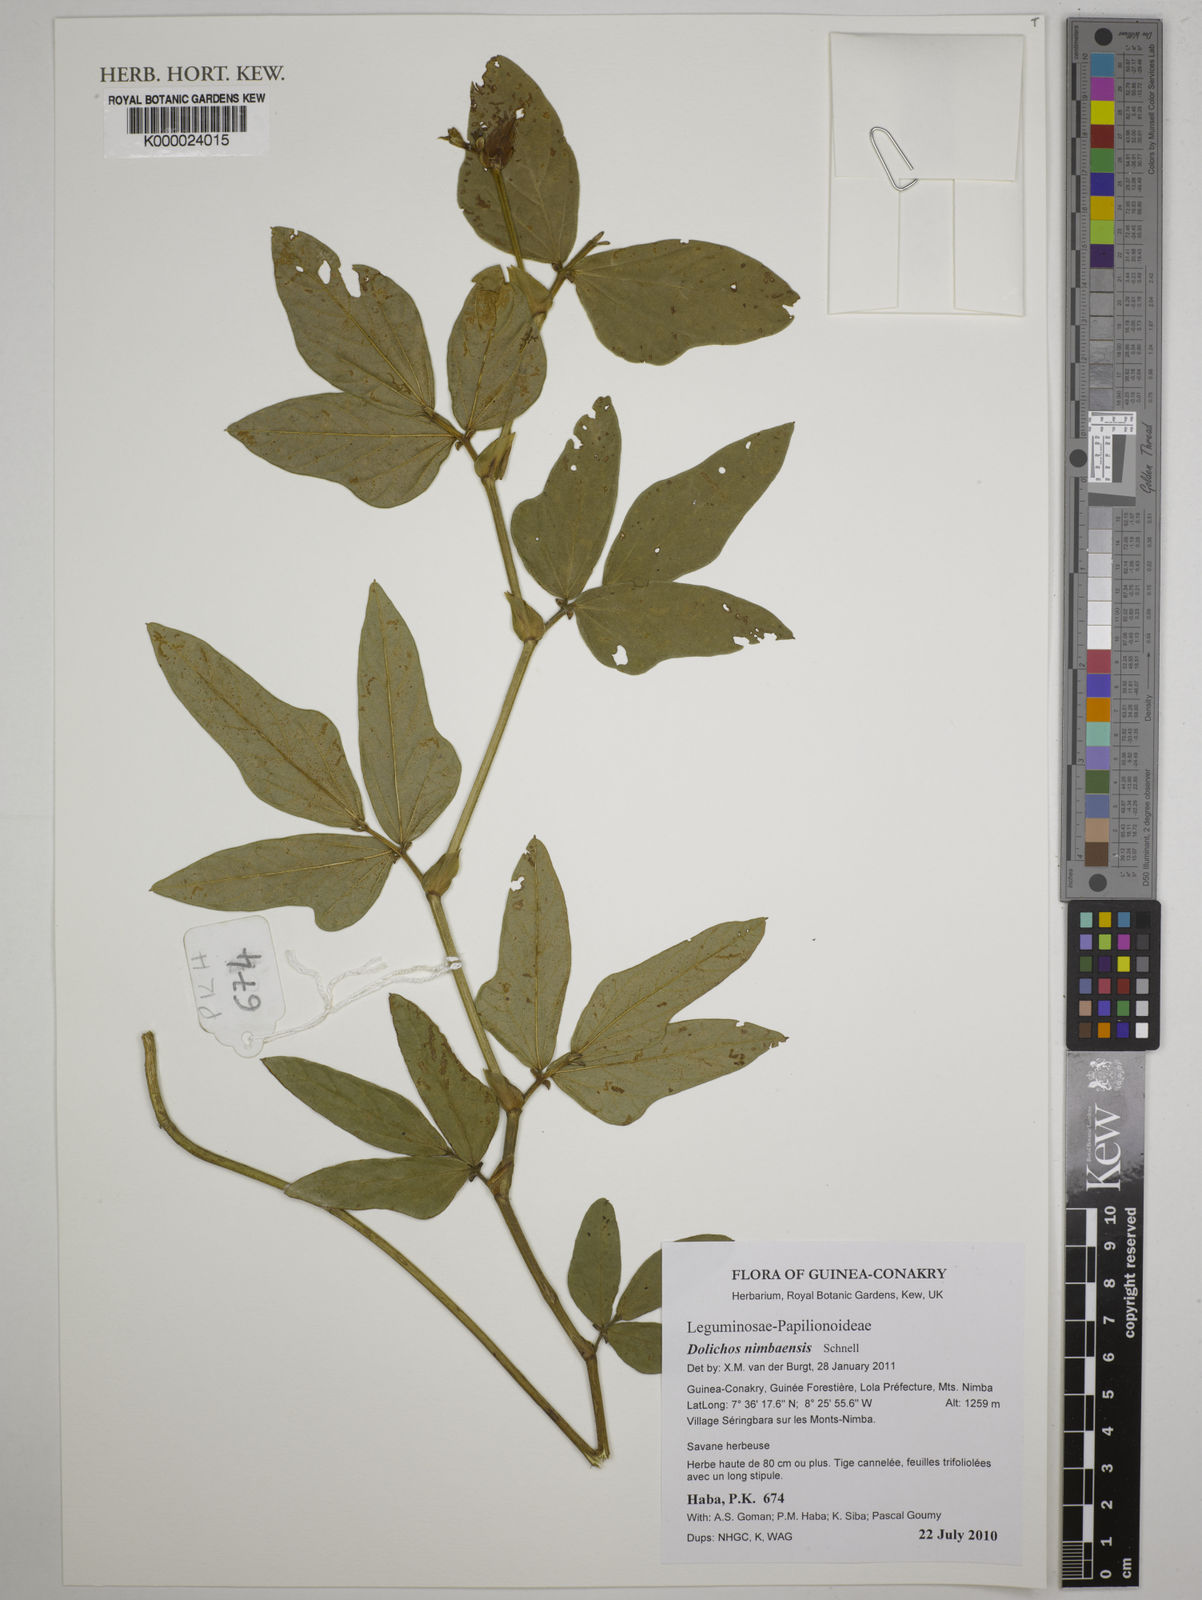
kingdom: Plantae
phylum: Tracheophyta
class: Magnoliopsida
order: Fabales
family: Fabaceae
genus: Dolichos
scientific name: Dolichos nimbaensis
